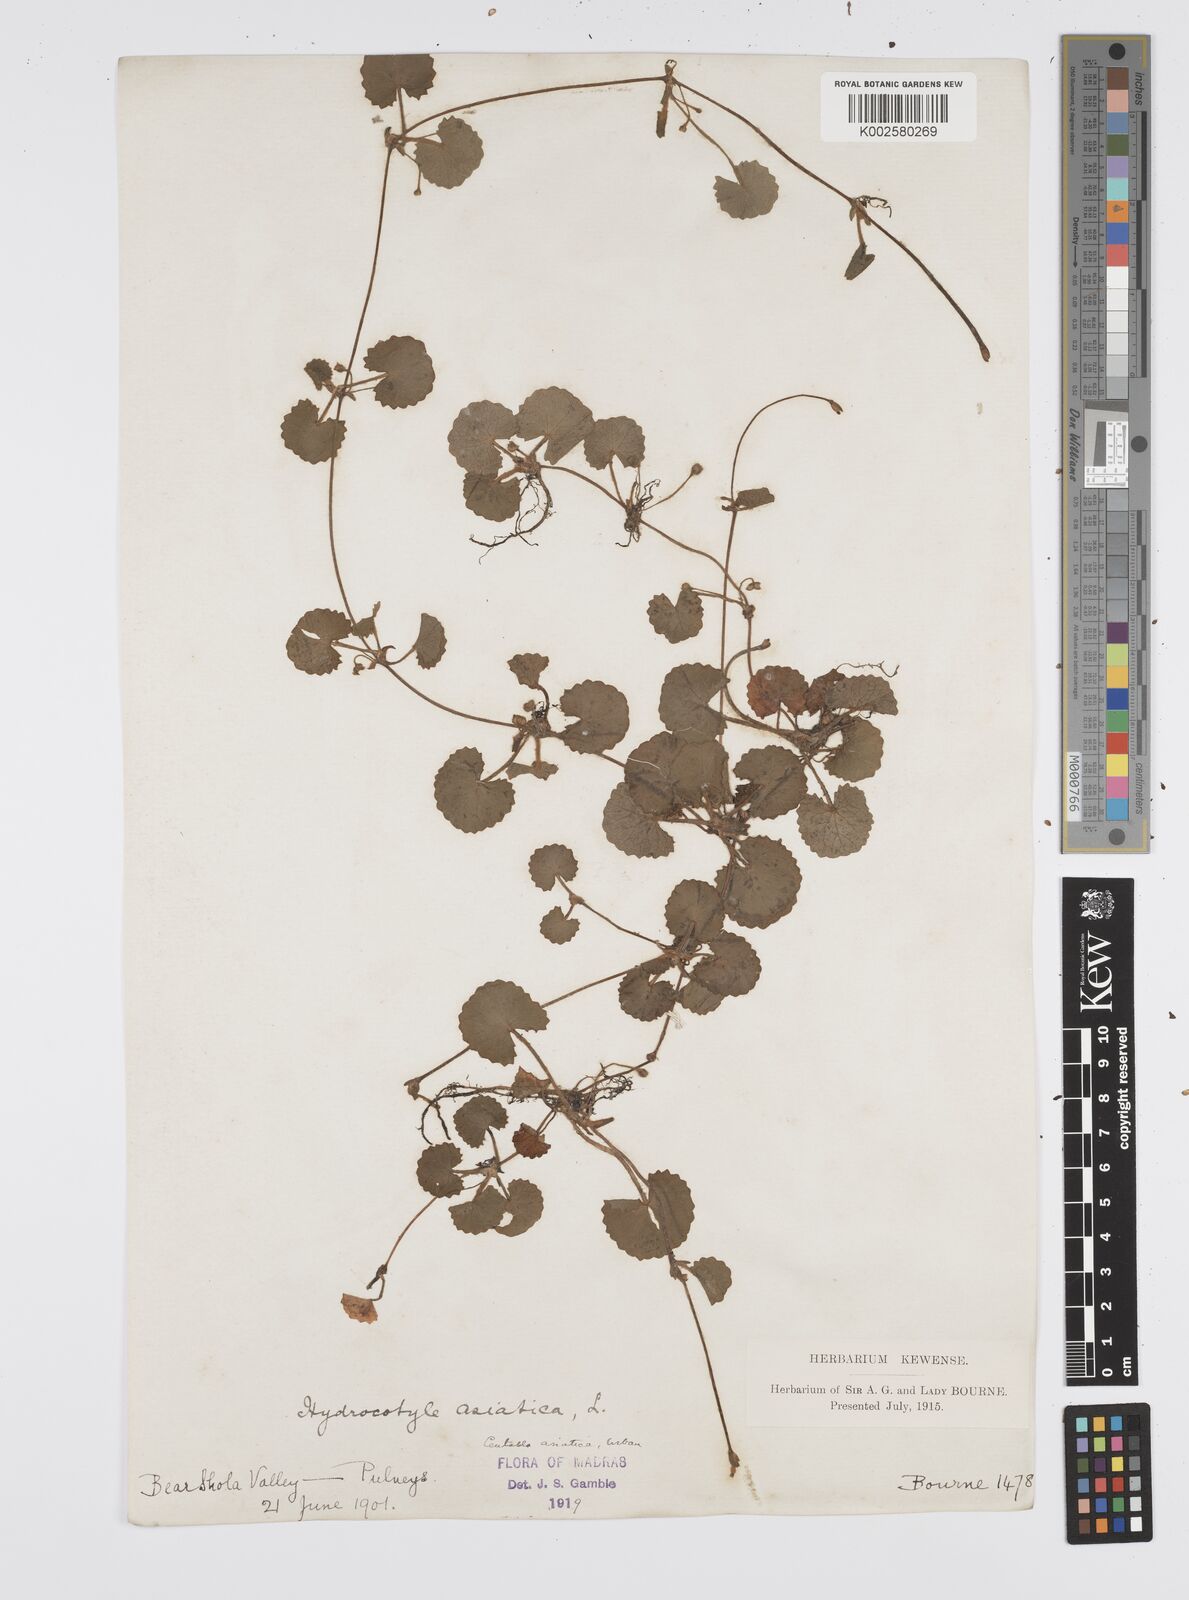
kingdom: Plantae
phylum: Tracheophyta
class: Magnoliopsida
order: Apiales
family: Apiaceae
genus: Centella
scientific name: Centella asiatica
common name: Spadeleaf
